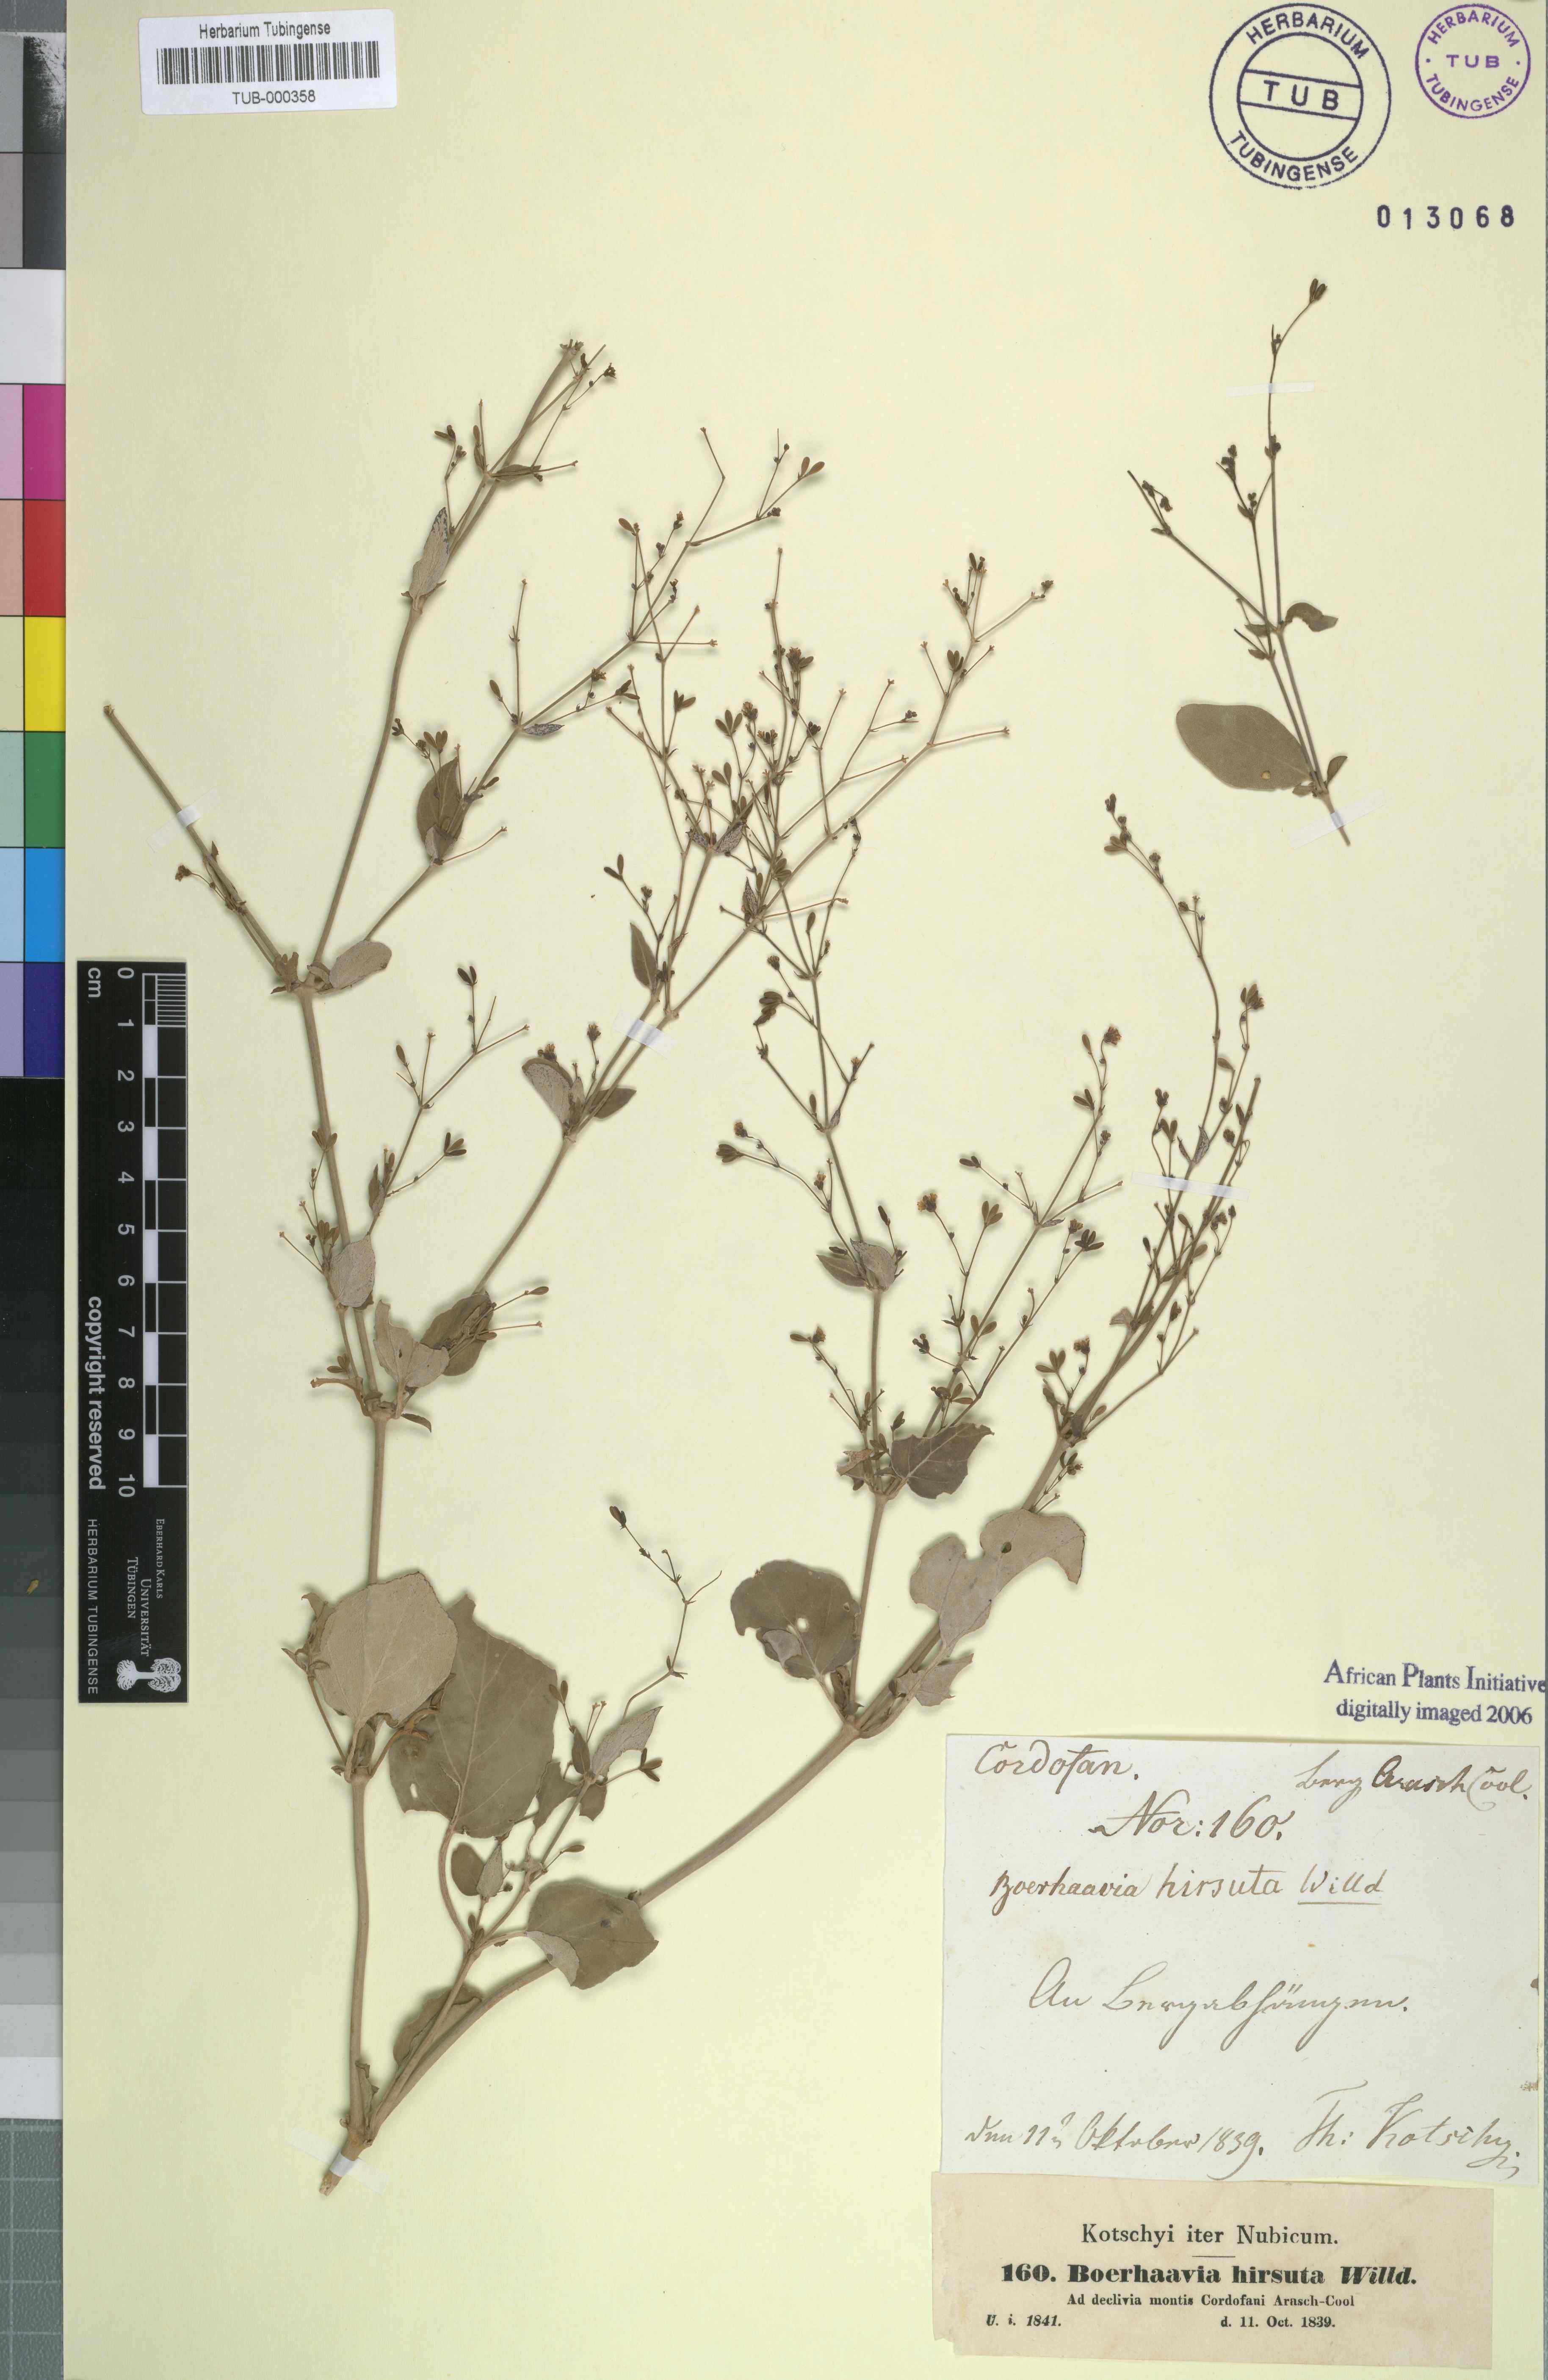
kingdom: Plantae
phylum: Tracheophyta
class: Magnoliopsida
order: Caryophyllales
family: Nyctaginaceae
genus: Boerhavia
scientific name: Boerhavia repens
